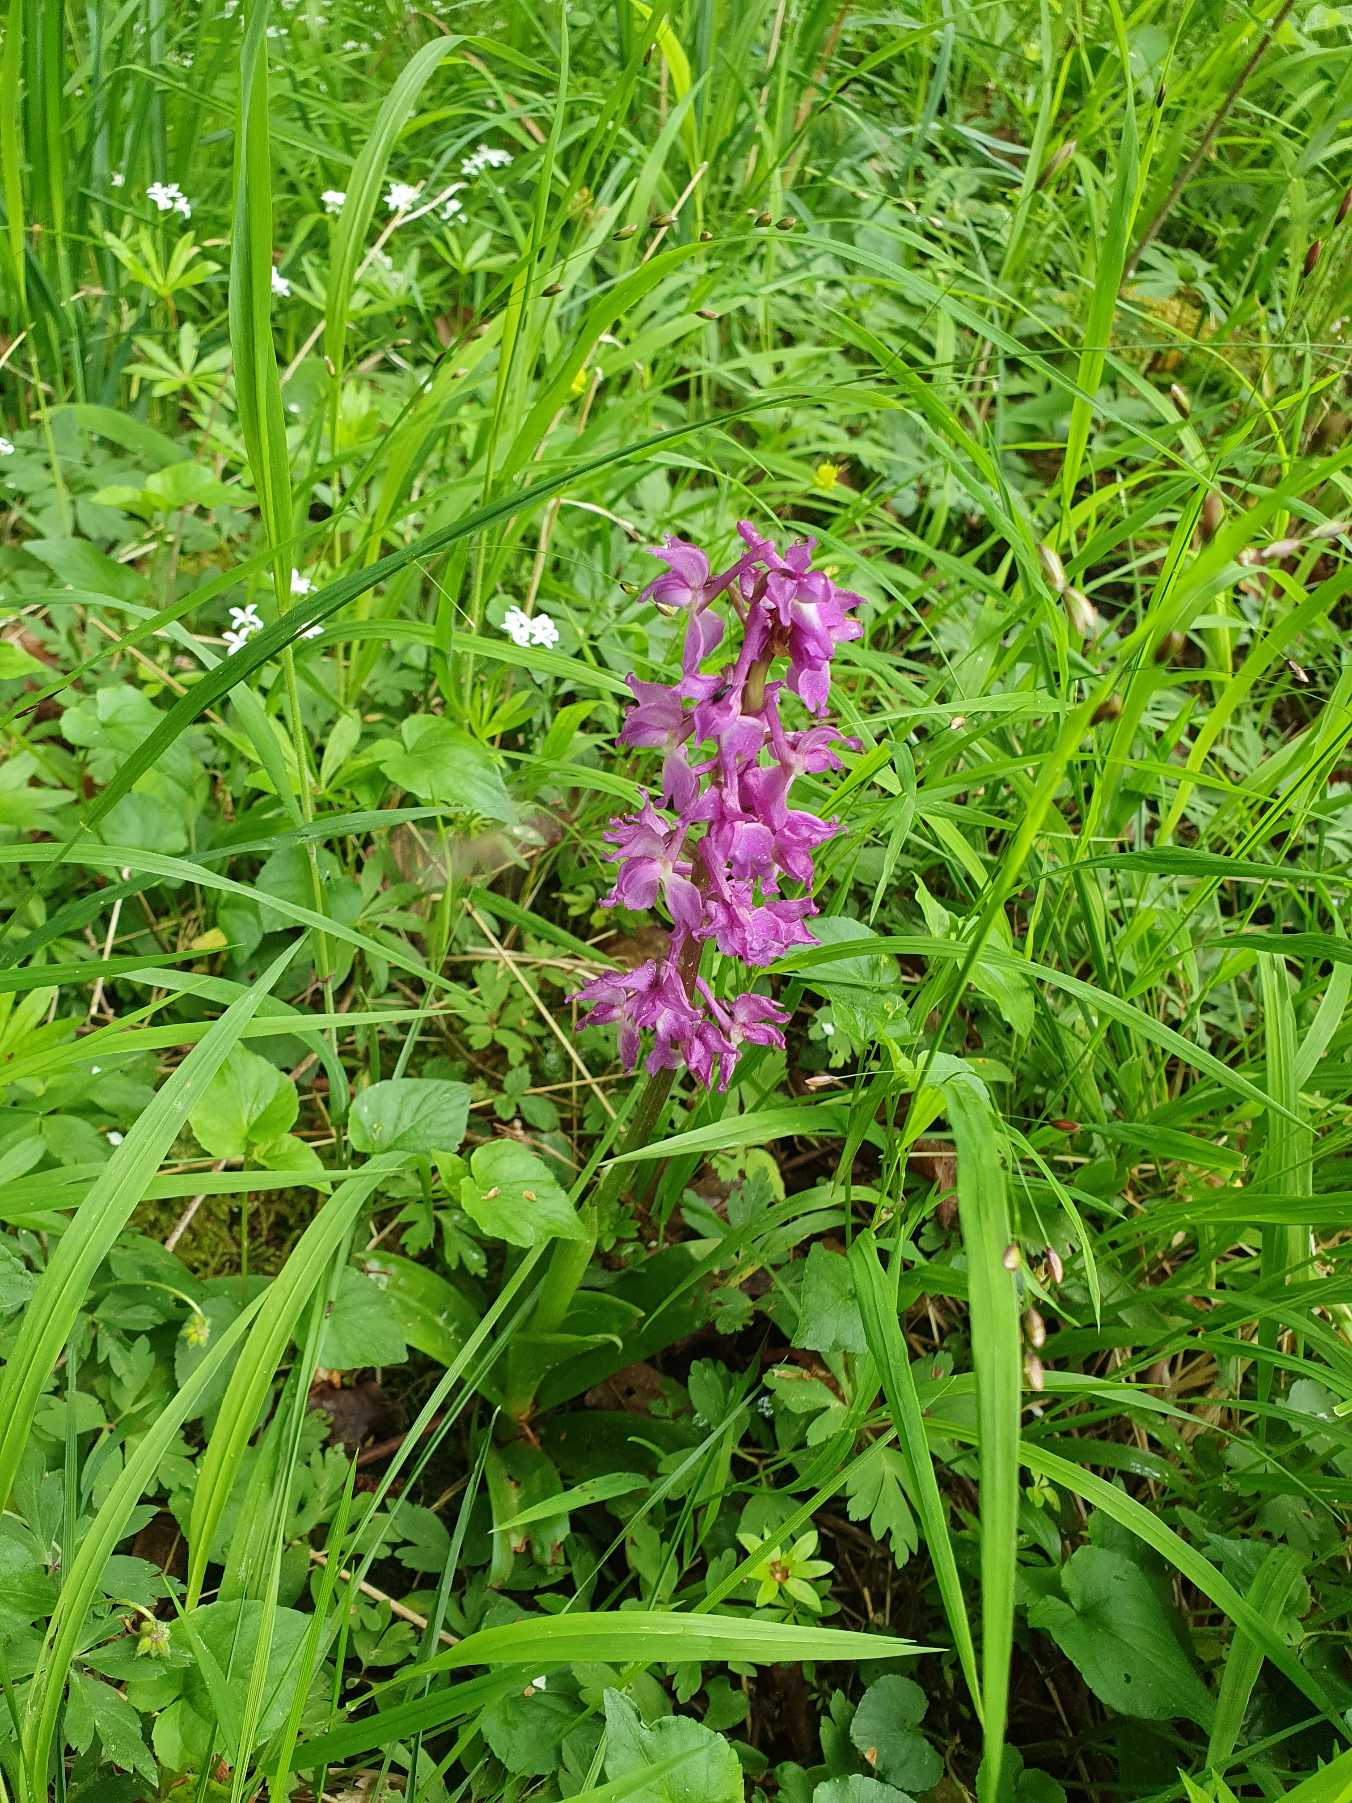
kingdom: Plantae
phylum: Tracheophyta
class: Liliopsida
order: Asparagales
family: Orchidaceae
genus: Orchis
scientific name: Orchis mascula
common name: Tyndakset gøgeurt
